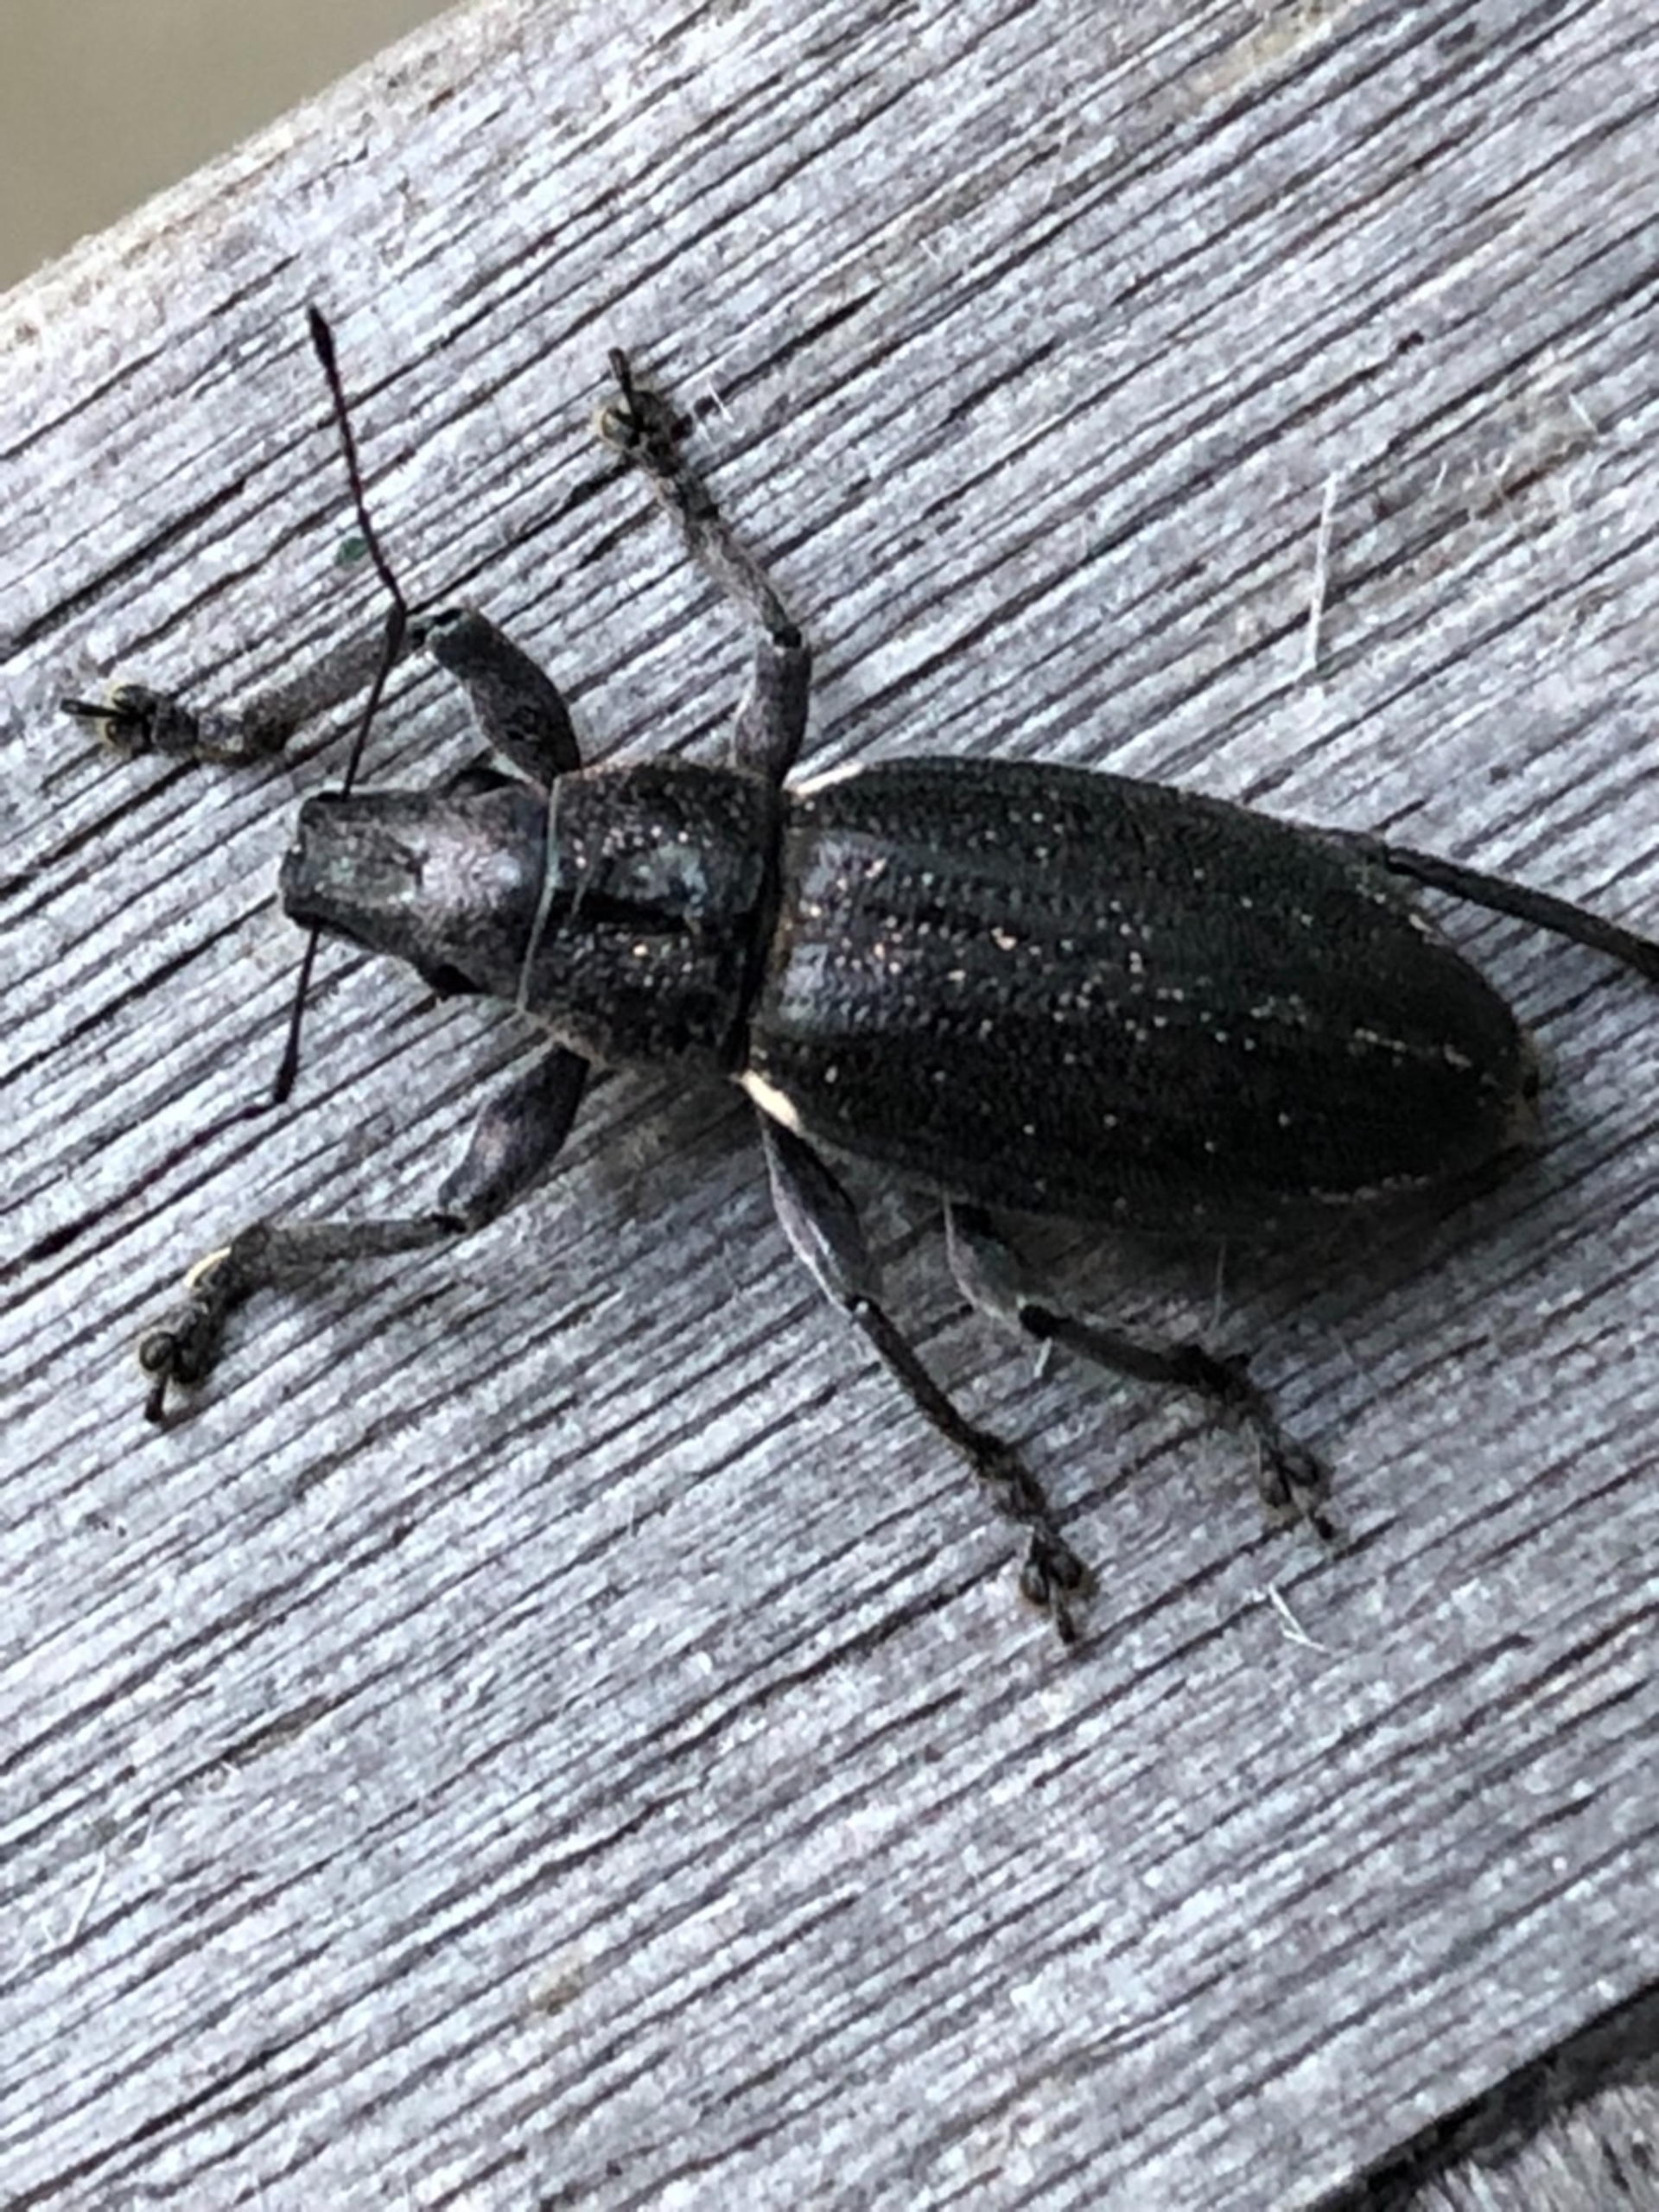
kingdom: Animalia
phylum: Arthropoda
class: Insecta
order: Coleoptera
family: Curculionidae
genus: Brachyderes
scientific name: Brachyderes lusitanicus
